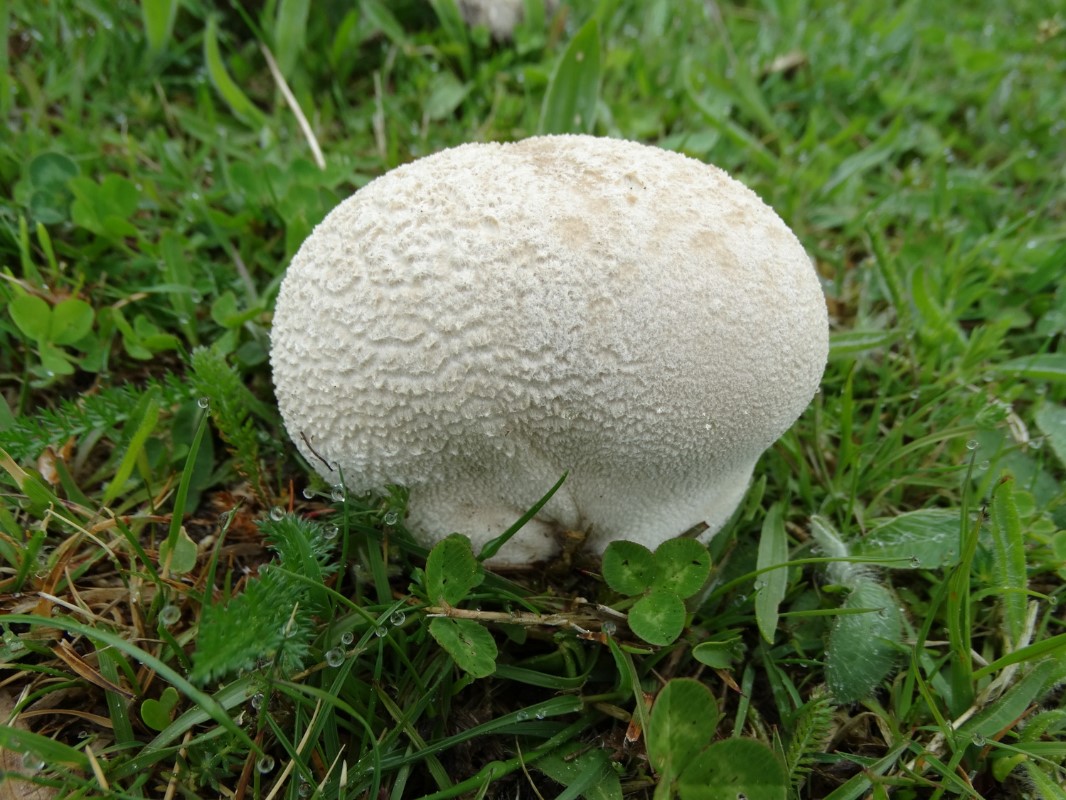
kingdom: Fungi
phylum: Basidiomycota
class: Agaricomycetes
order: Agaricales
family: Lycoperdaceae
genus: Bovistella
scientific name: Bovistella utriformis
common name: skællet støvbold
